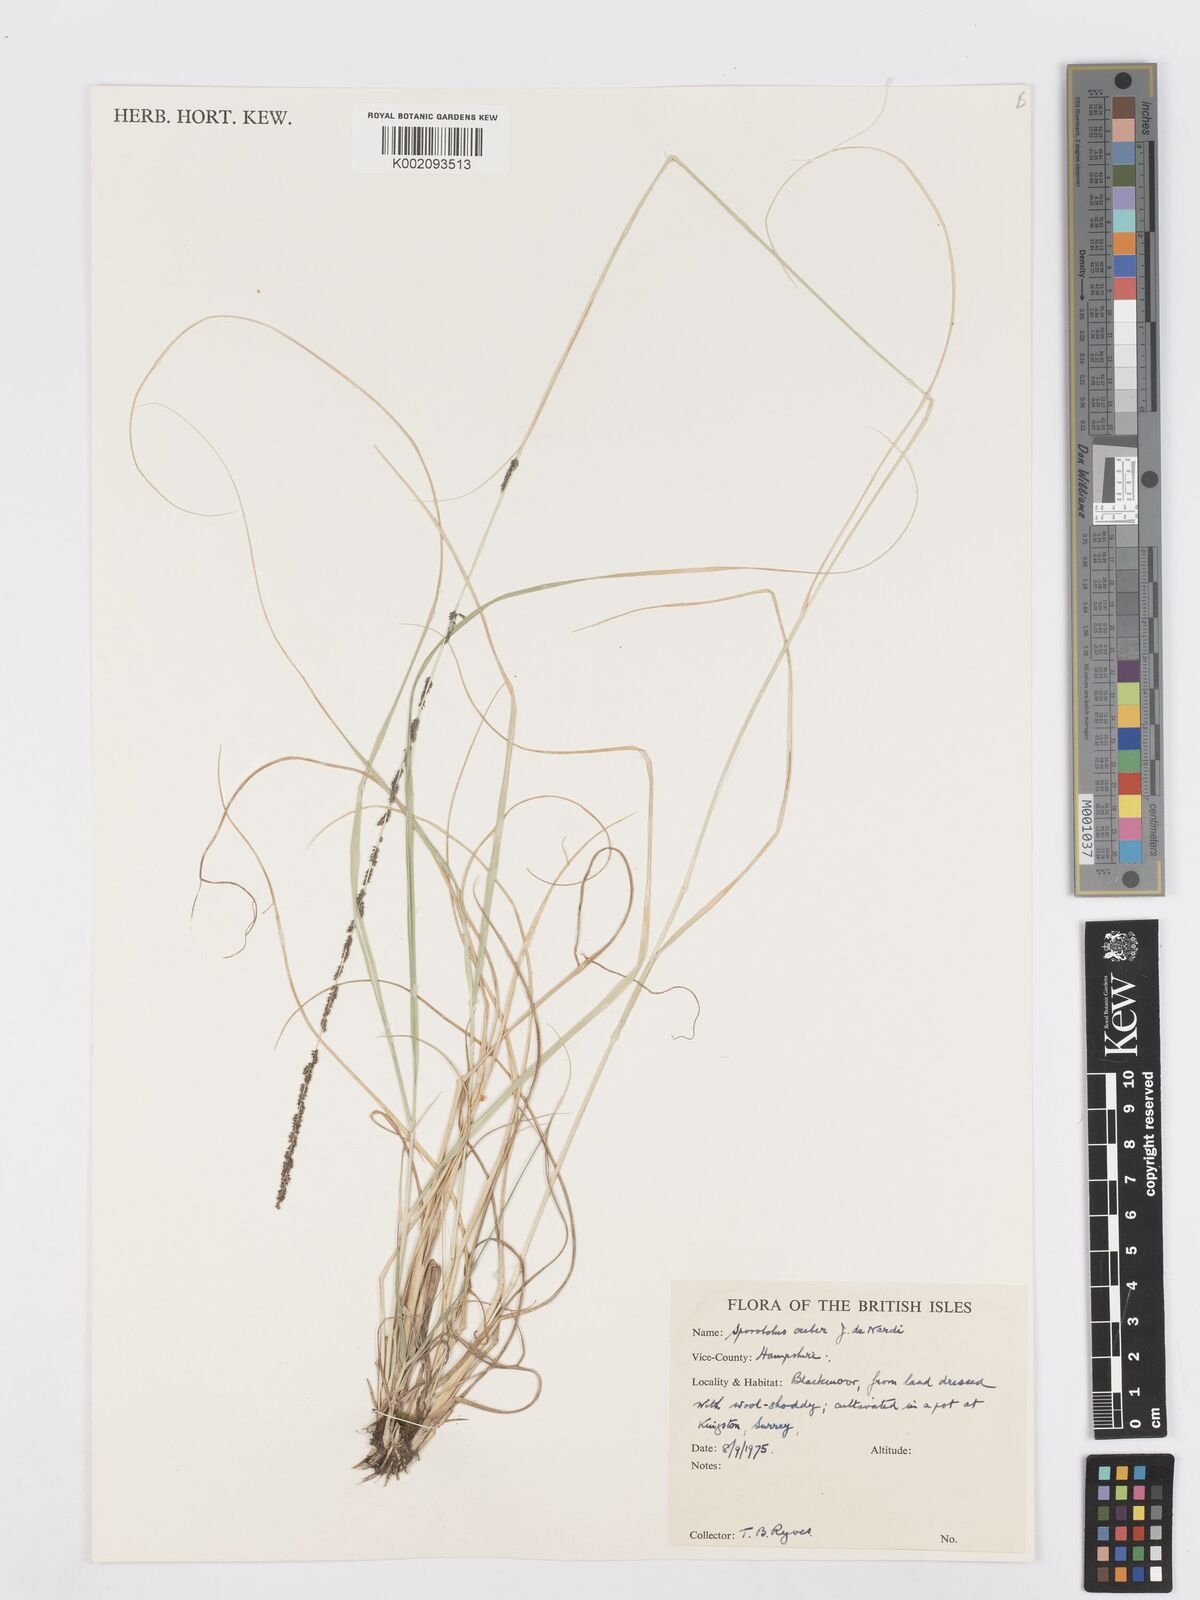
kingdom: Plantae
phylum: Tracheophyta
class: Liliopsida
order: Poales
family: Poaceae
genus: Sporobolus
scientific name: Sporobolus creber
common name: Slender dropseed
